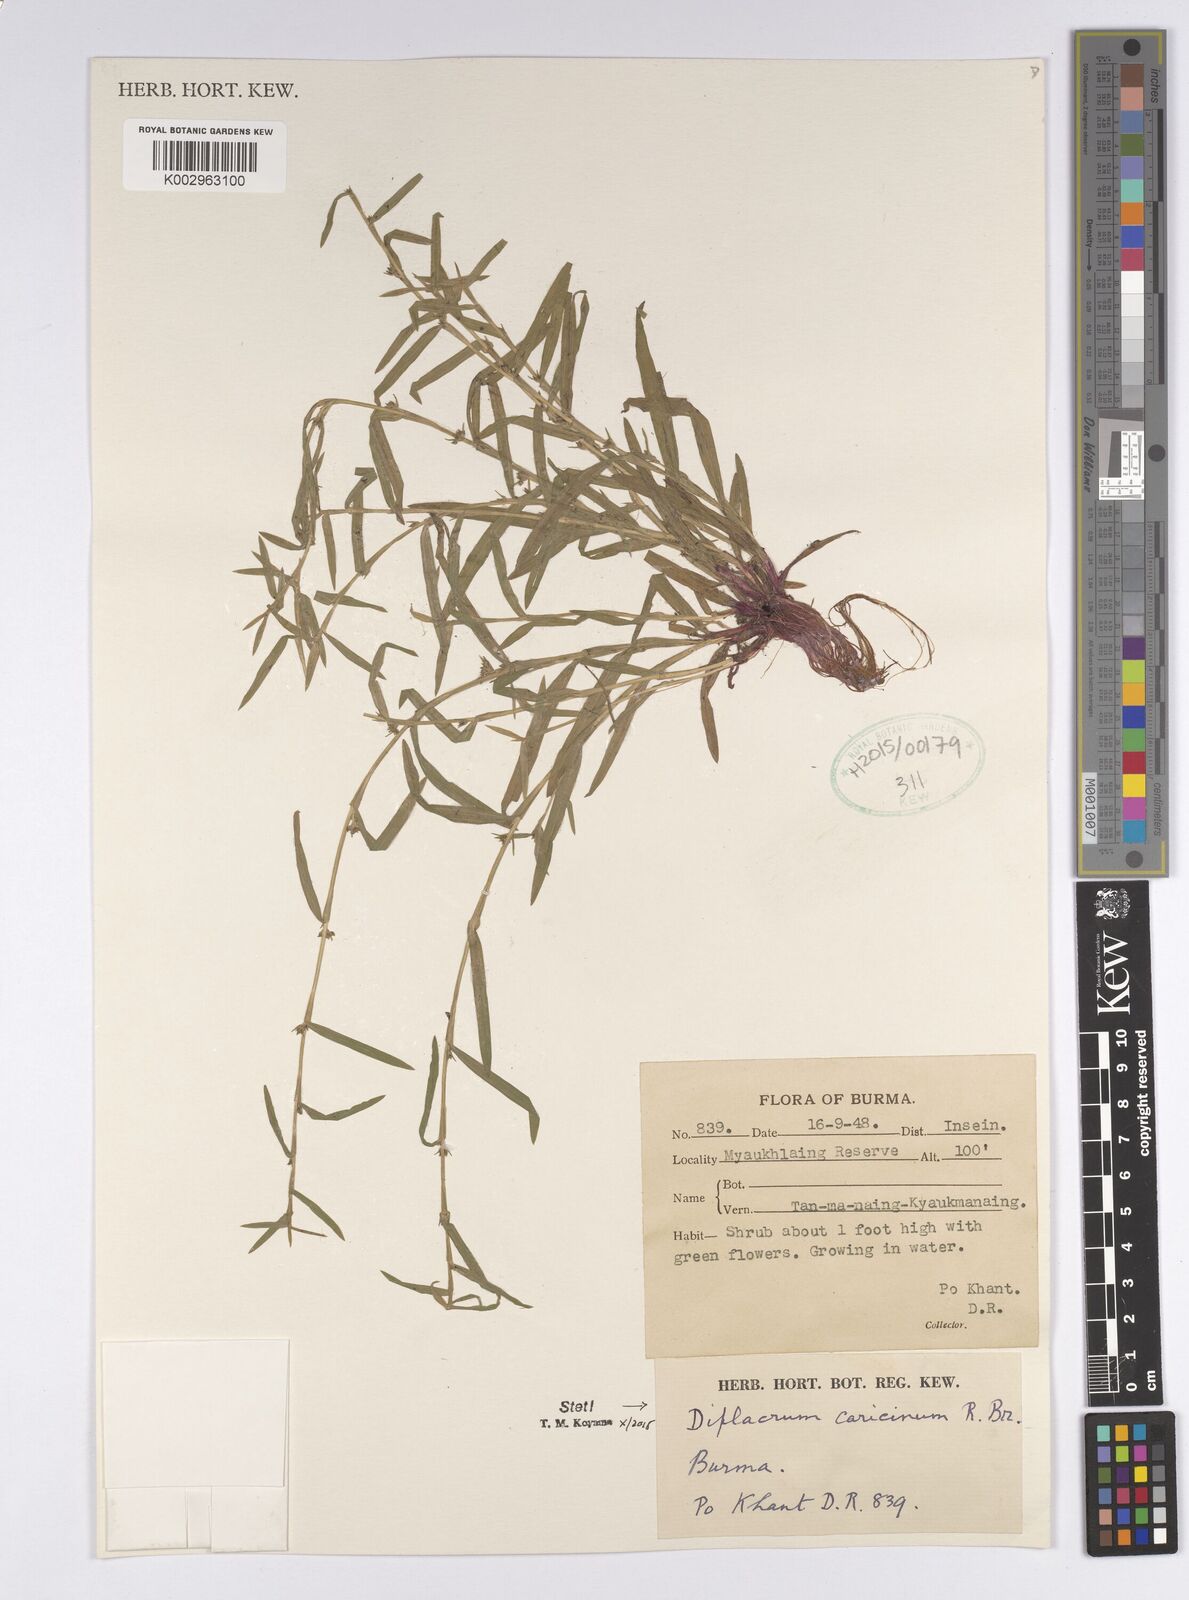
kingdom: Plantae
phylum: Tracheophyta
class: Liliopsida
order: Poales
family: Cyperaceae
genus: Diplacrum
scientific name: Diplacrum caricinum
